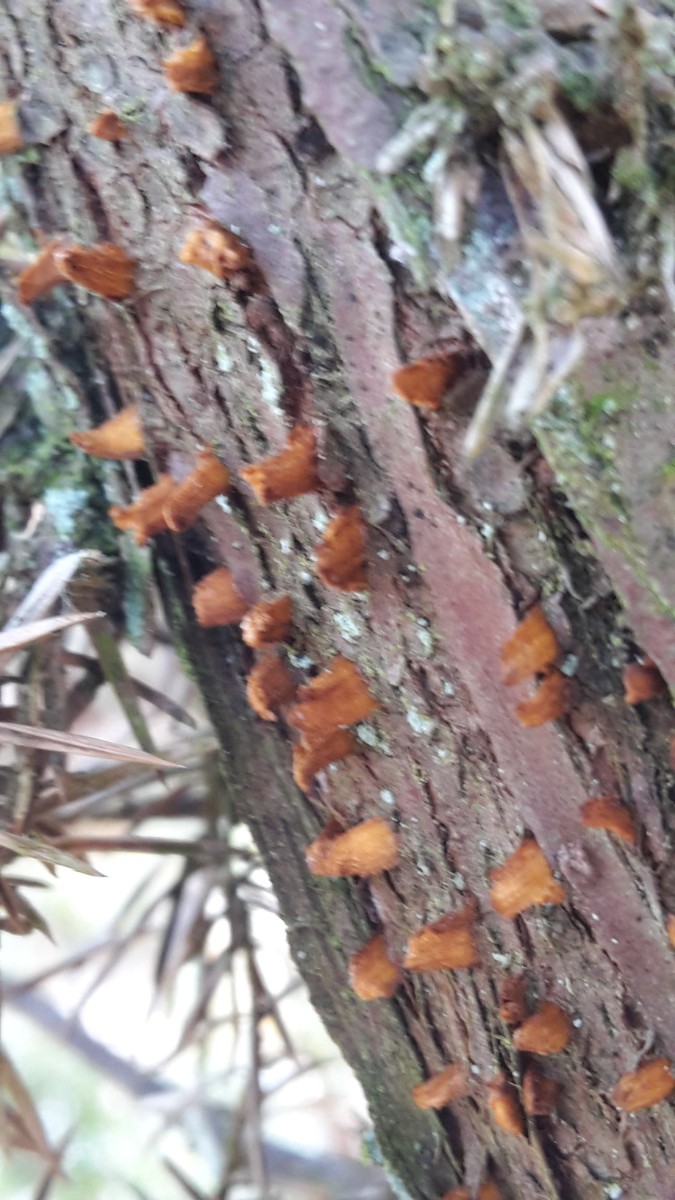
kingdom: Fungi
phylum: Basidiomycota
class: Pucciniomycetes
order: Pucciniales
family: Gymnosporangiaceae
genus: Gymnosporangium
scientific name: Gymnosporangium clavariiforme
